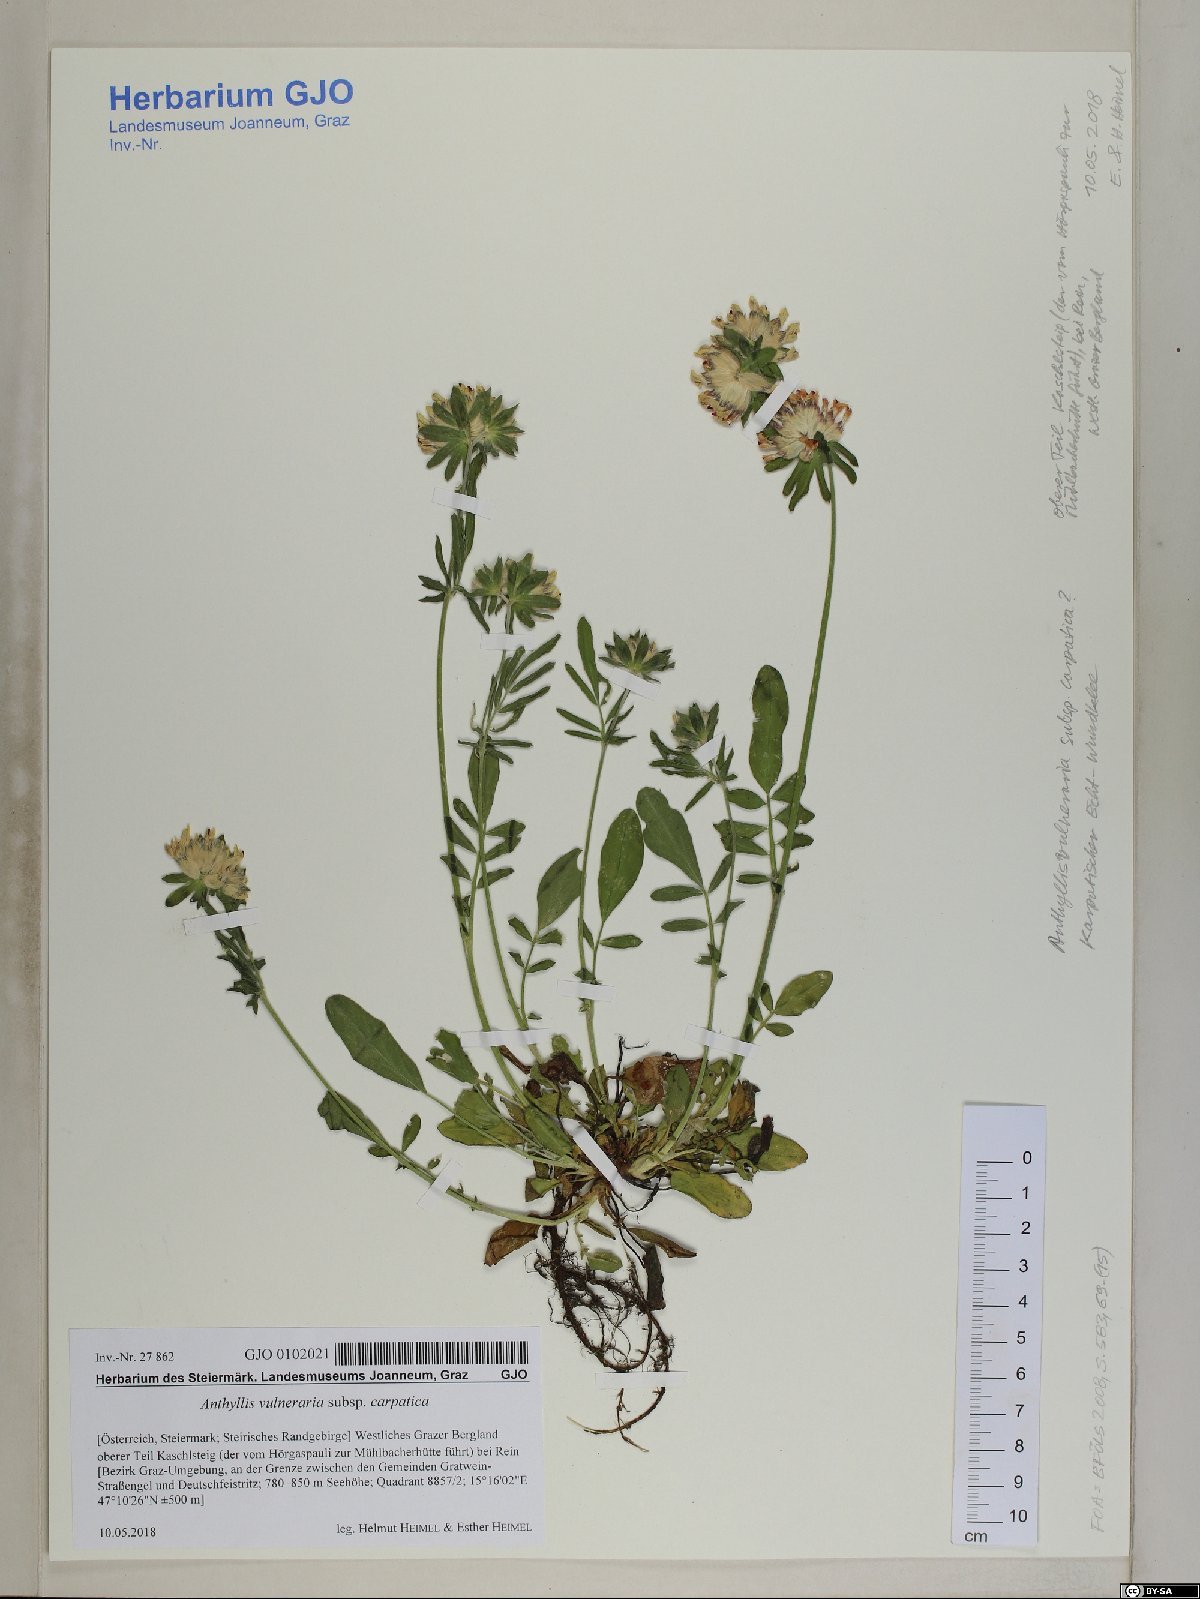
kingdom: Plantae
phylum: Tracheophyta
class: Magnoliopsida
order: Fabales
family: Fabaceae
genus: Anthyllis
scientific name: Anthyllis vulneraria
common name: Kidney vetch
